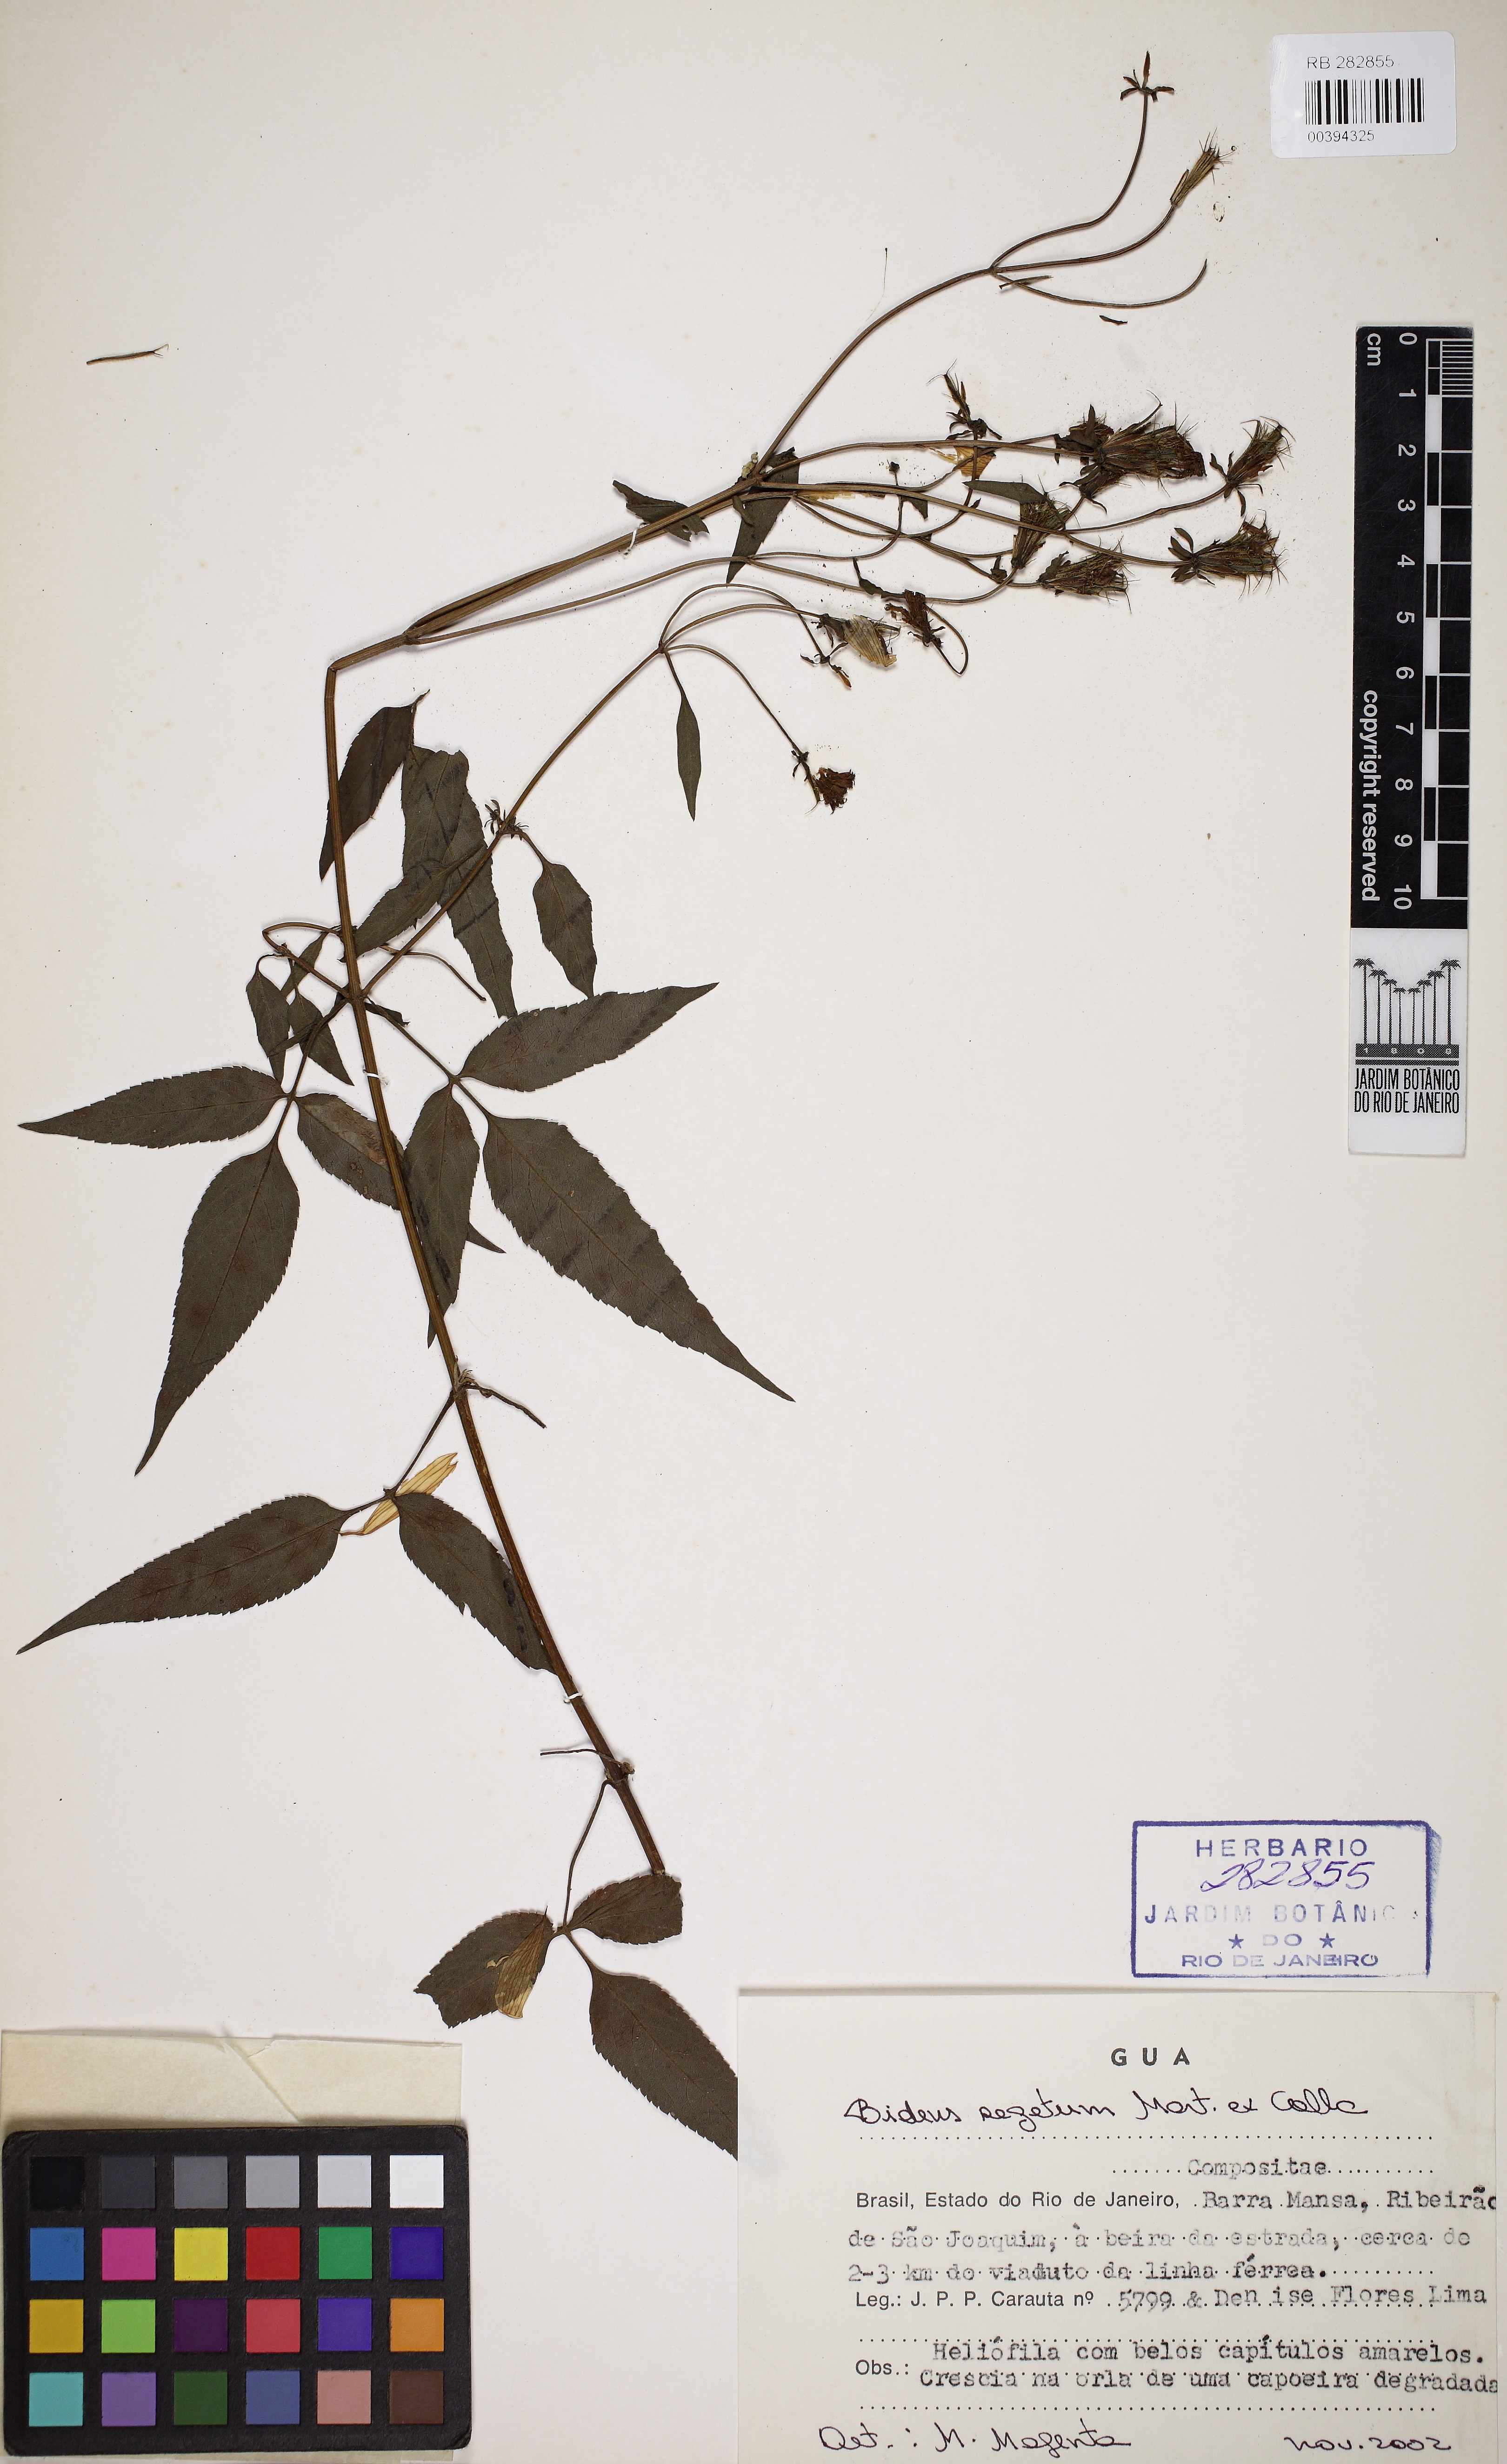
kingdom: Plantae
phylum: Tracheophyta
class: Magnoliopsida
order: Asterales
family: Asteraceae
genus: Bidens
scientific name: Bidens segetum
